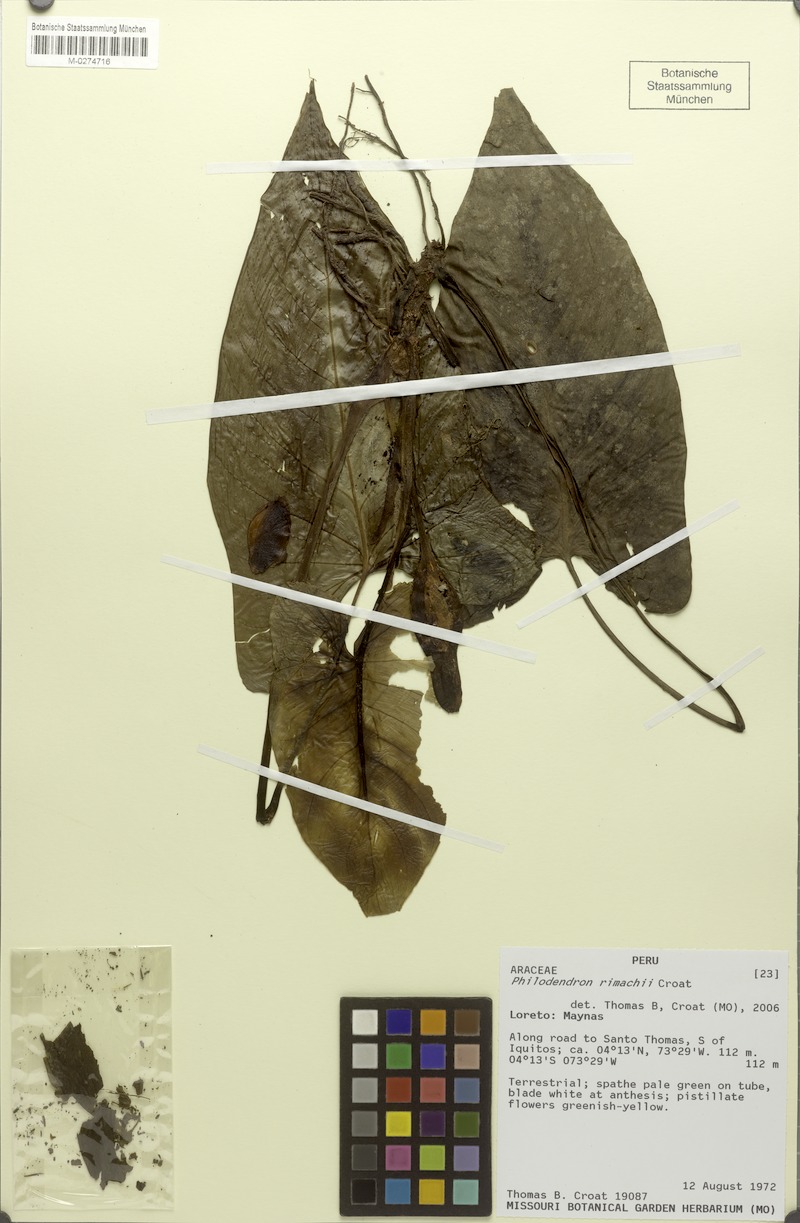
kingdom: Plantae
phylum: Tracheophyta
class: Liliopsida
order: Alismatales
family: Araceae
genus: Philodendron
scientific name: Philodendron rimachii
